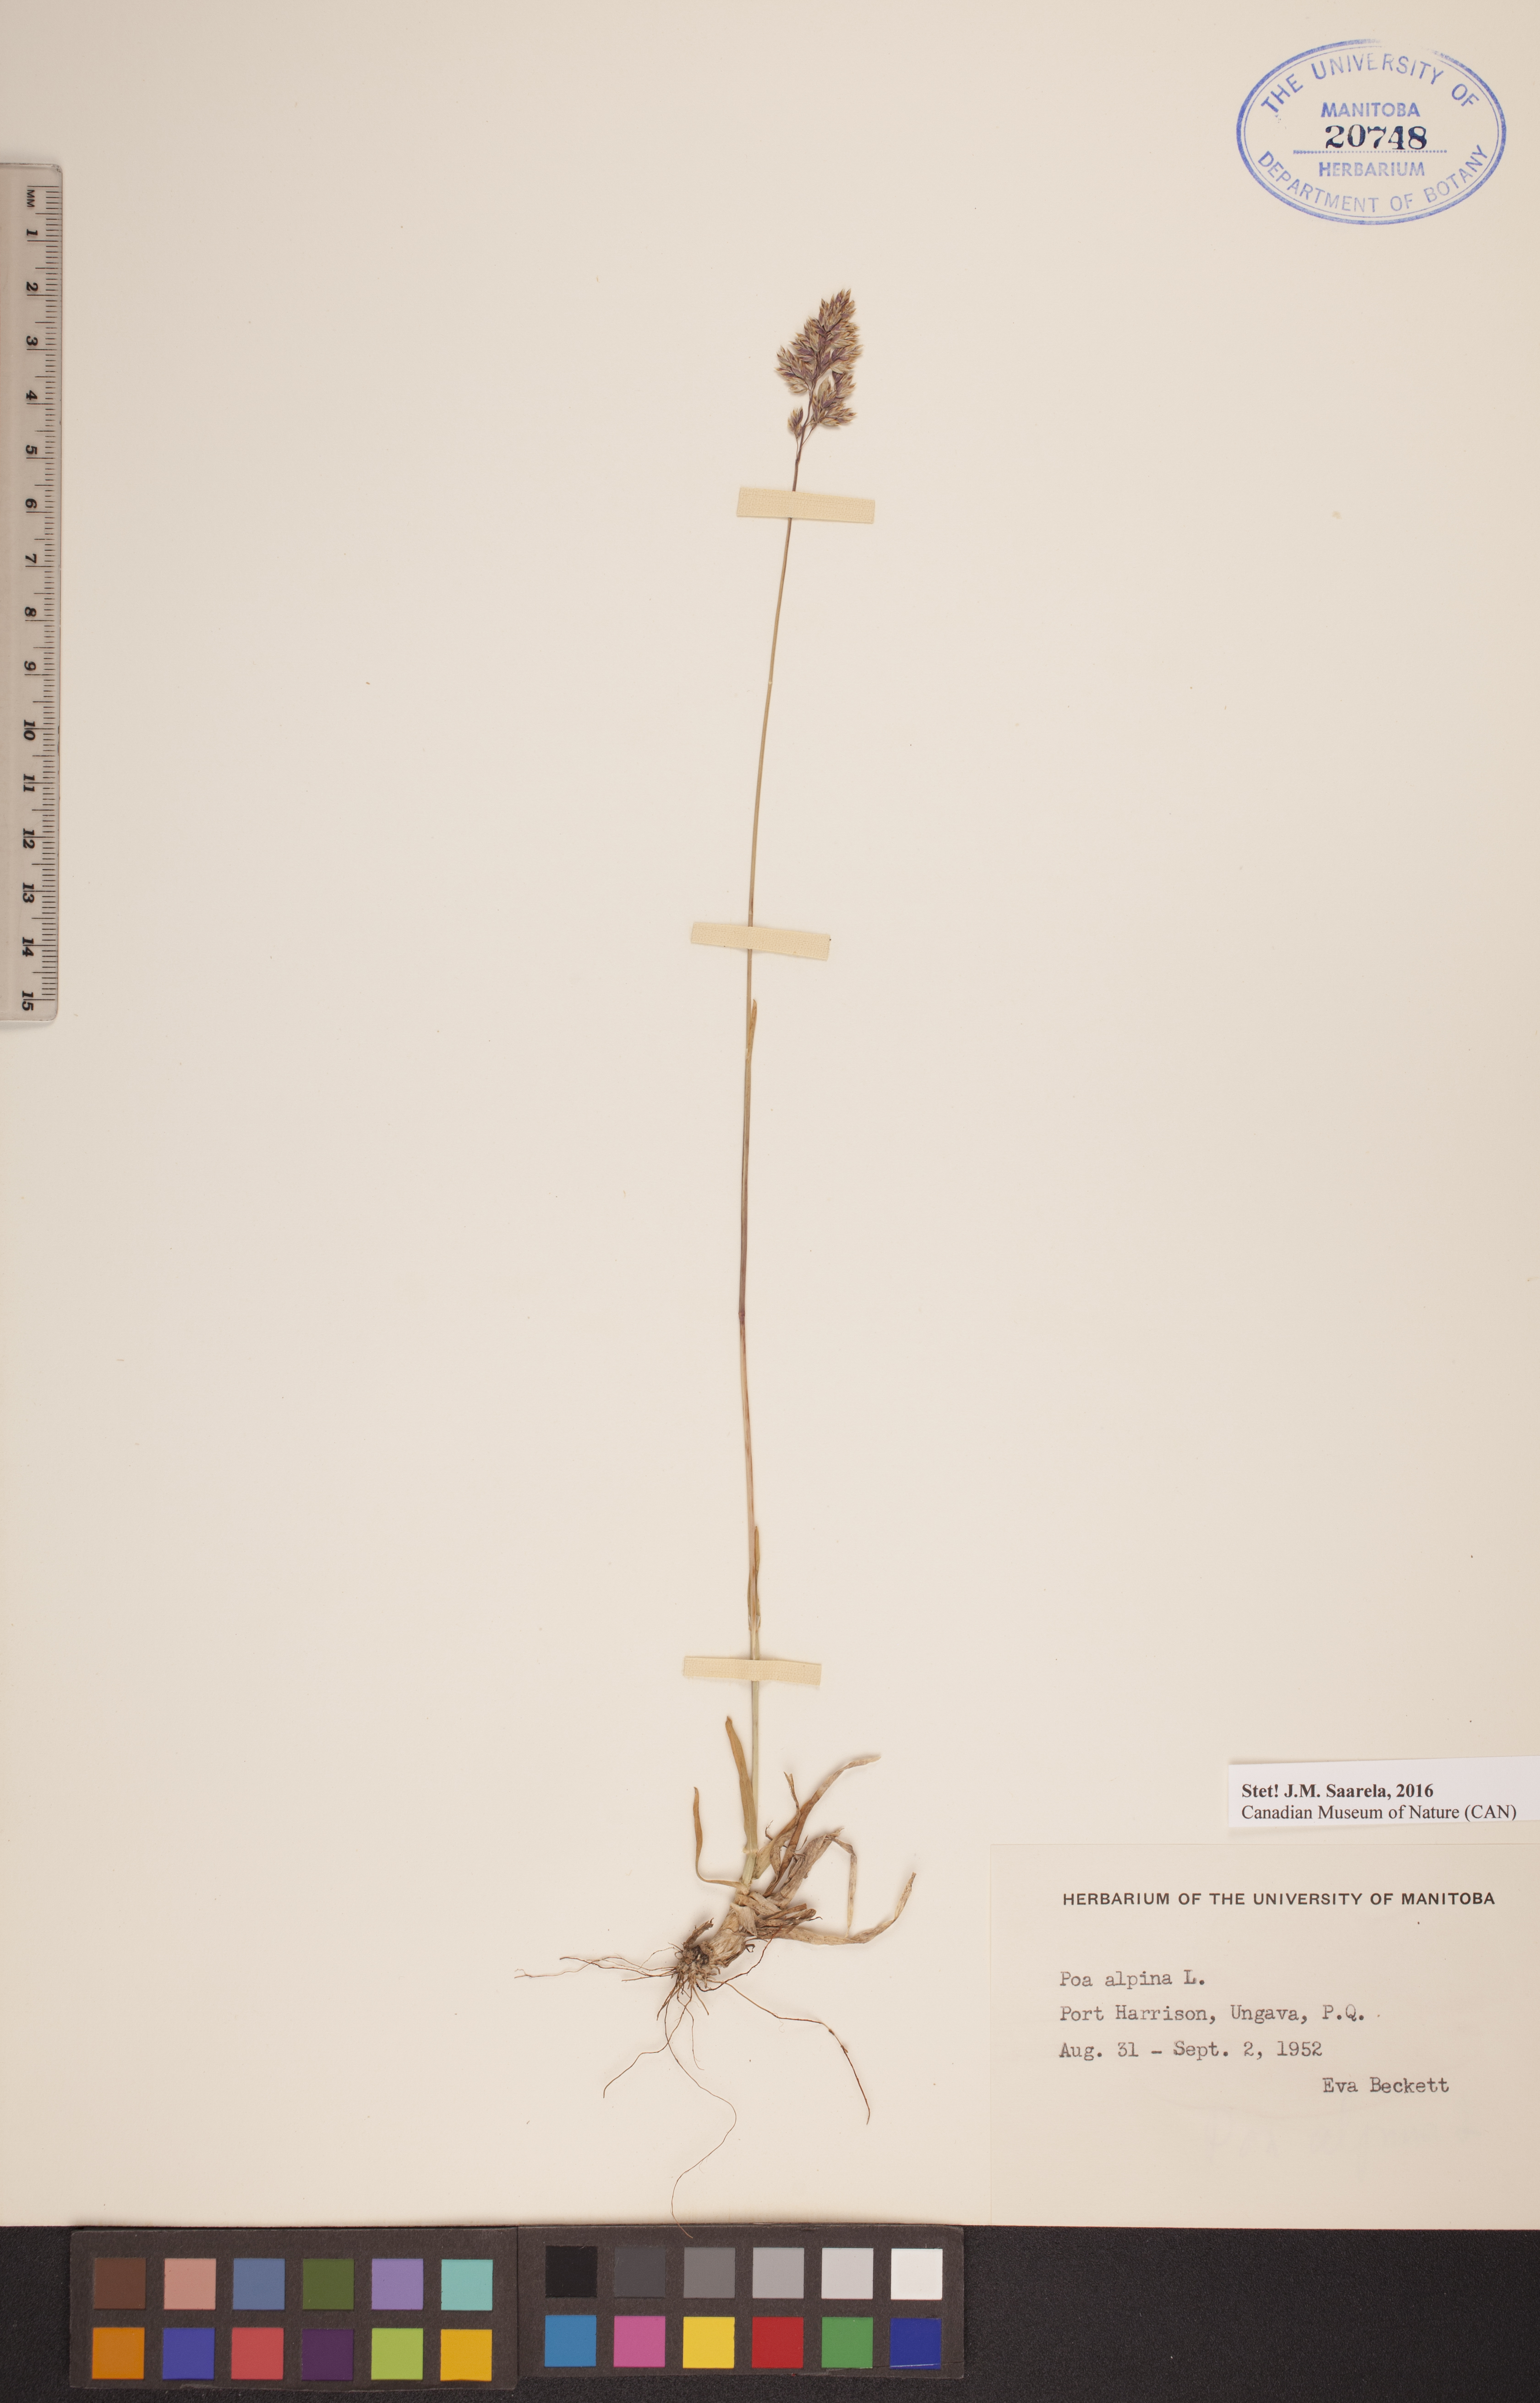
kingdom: Plantae
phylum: Tracheophyta
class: Liliopsida
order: Poales
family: Poaceae
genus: Poa
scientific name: Poa alpina
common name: Alpine bluegrass
